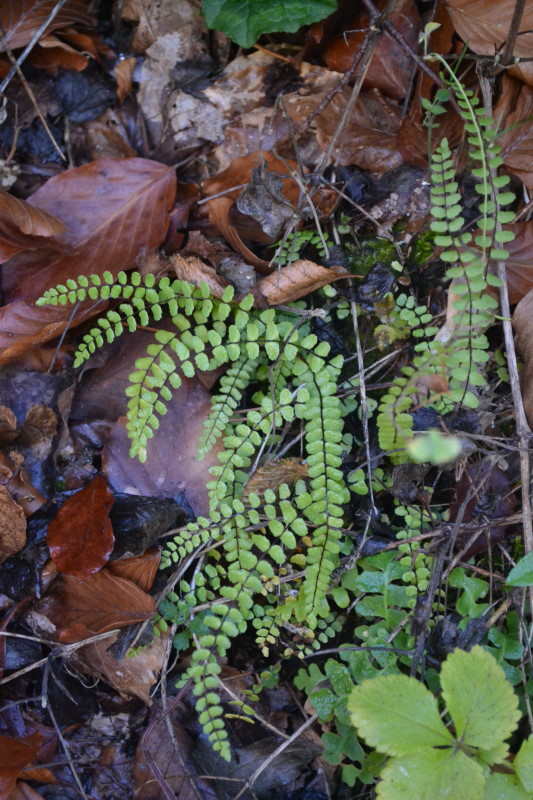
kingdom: Plantae
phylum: Tracheophyta
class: Polypodiopsida
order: Polypodiales
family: Aspleniaceae
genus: Asplenium
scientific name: Asplenium trichomanes
